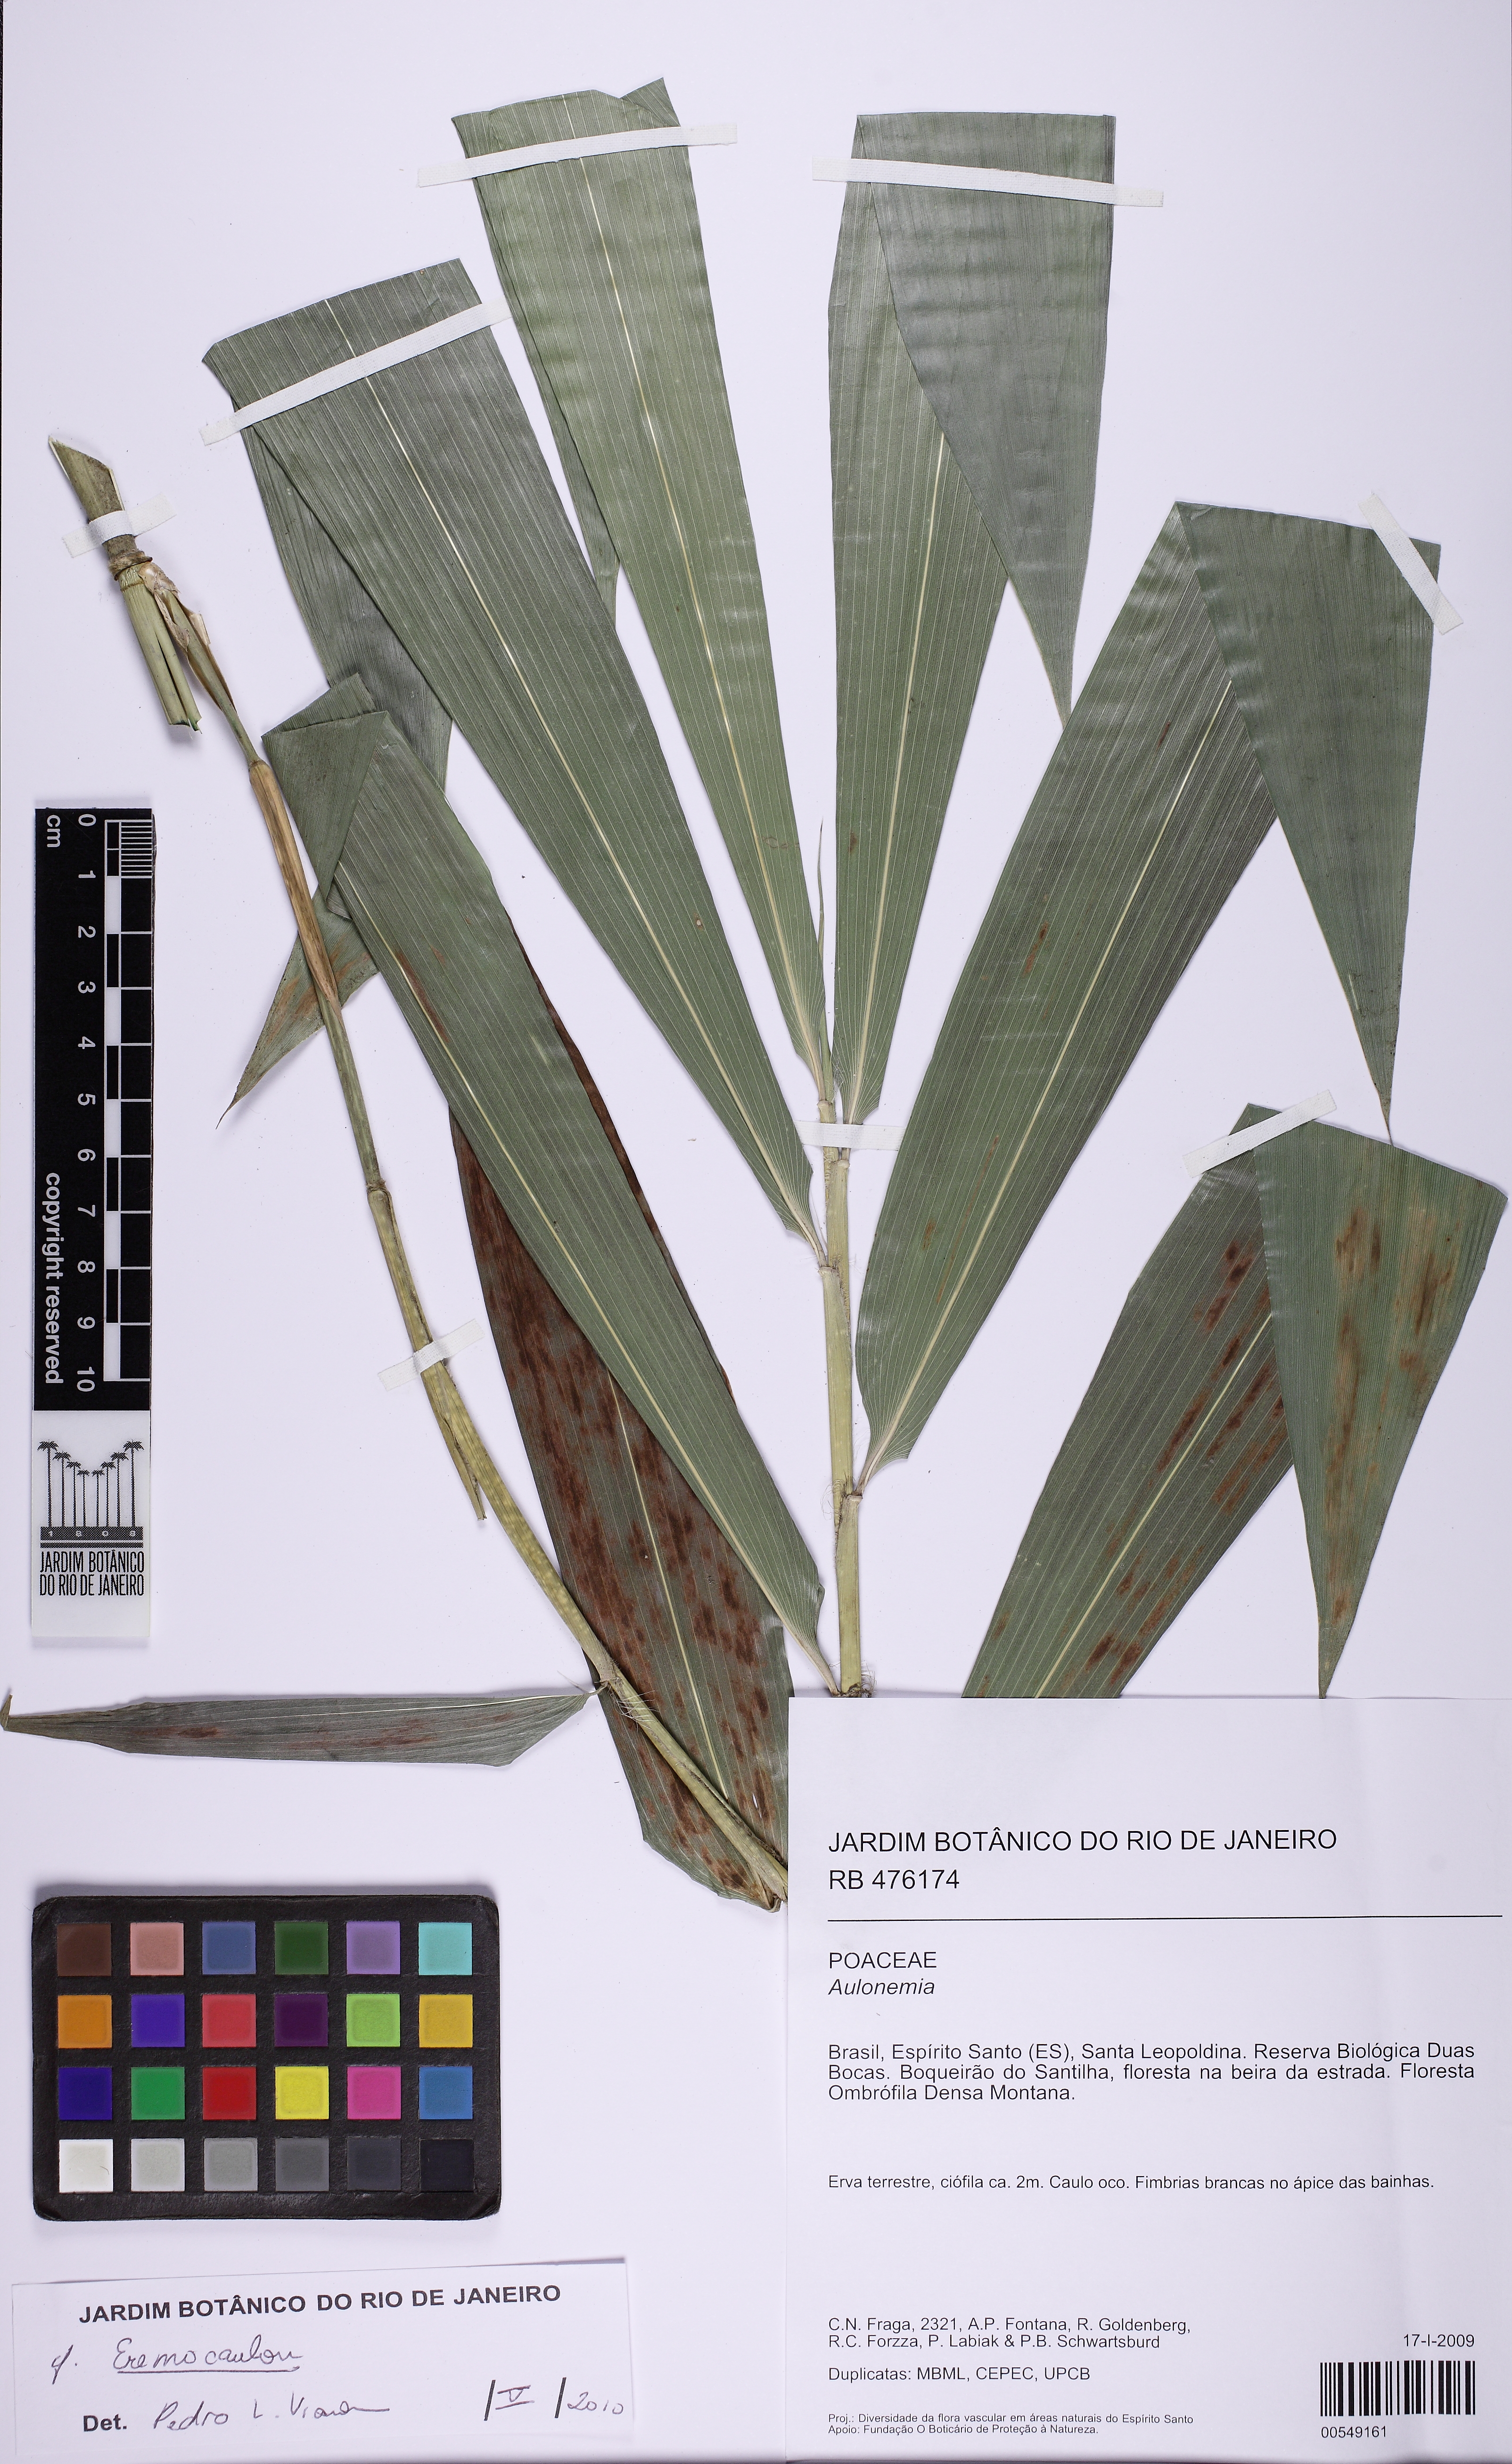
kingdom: Plantae
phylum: Tracheophyta
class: Liliopsida
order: Poales
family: Poaceae
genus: Eremocaulon
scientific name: Eremocaulon
